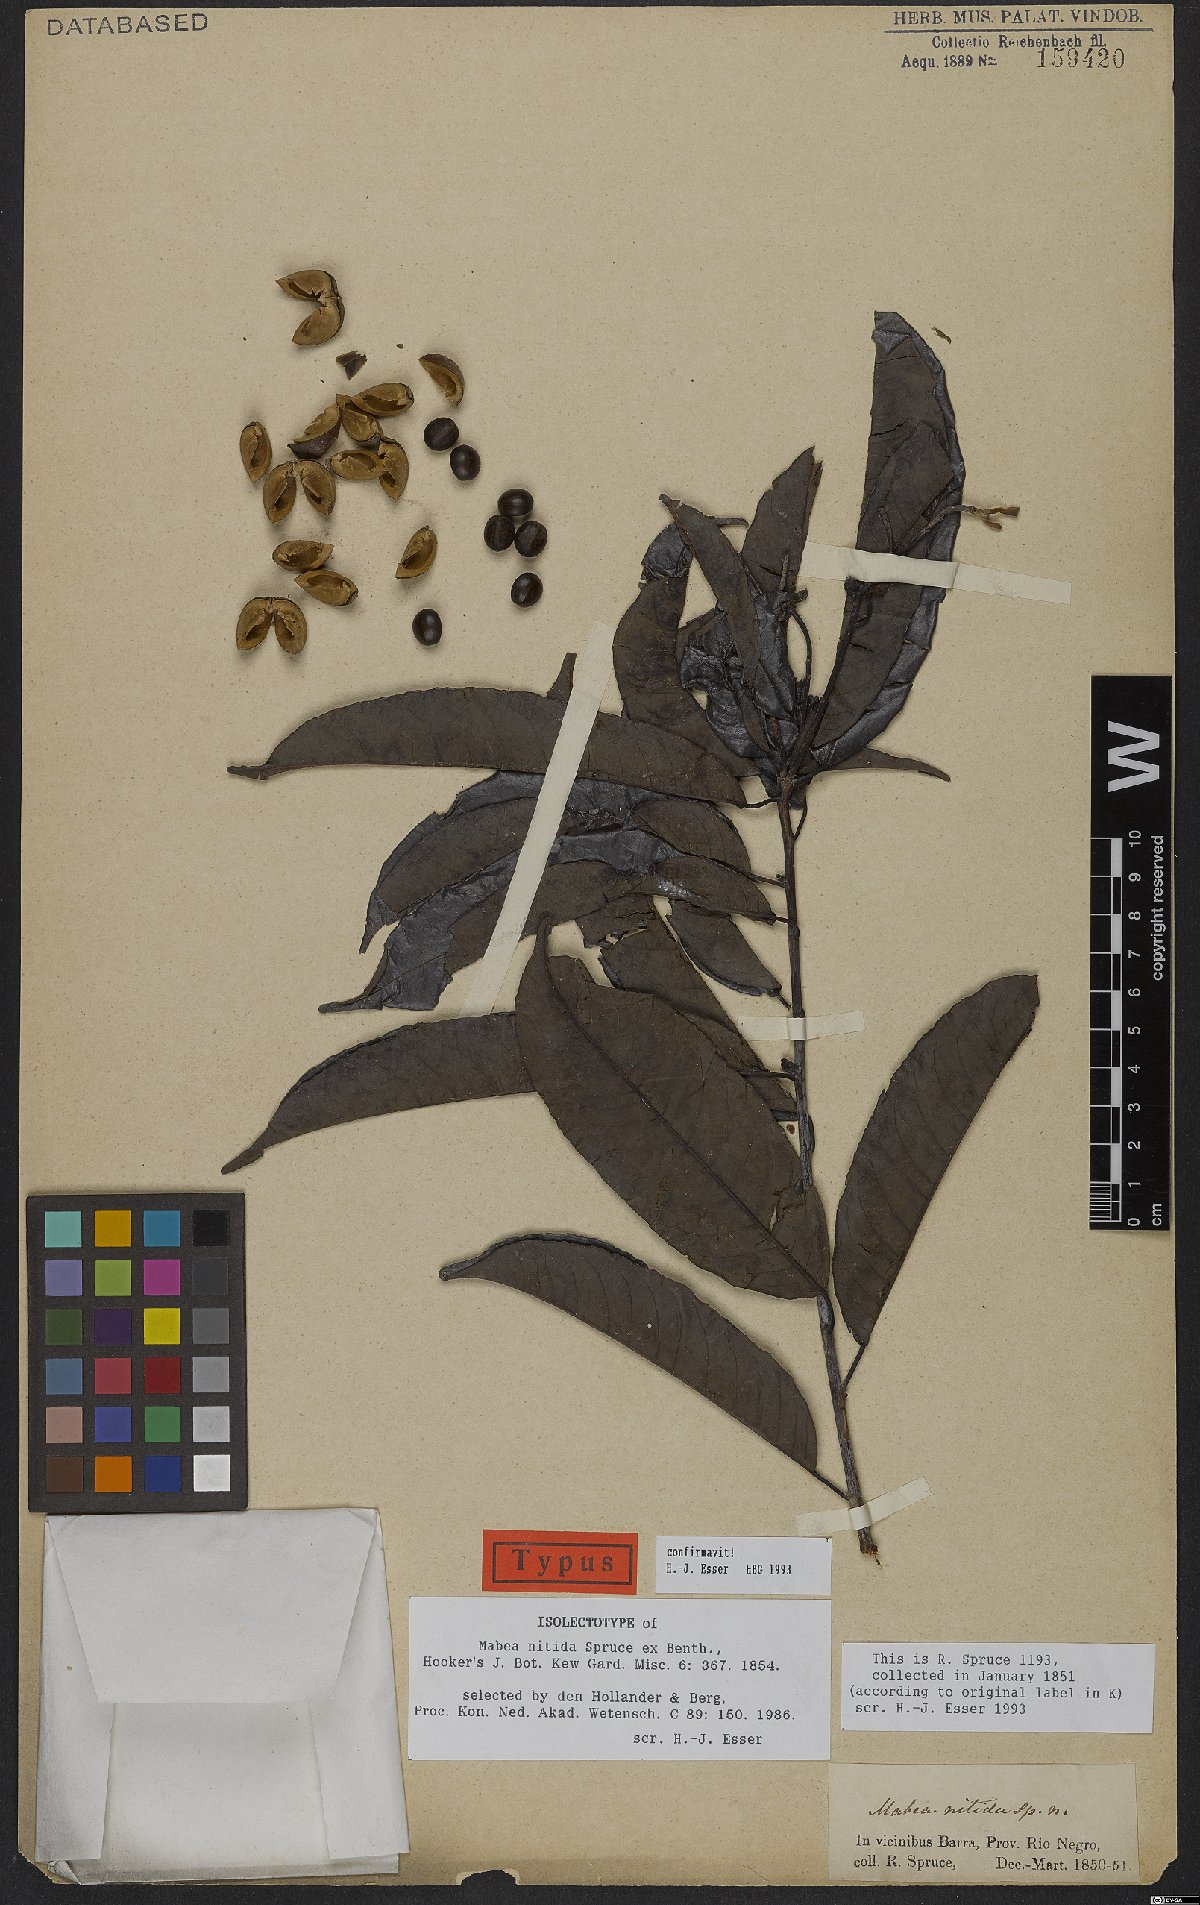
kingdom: Plantae
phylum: Tracheophyta
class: Magnoliopsida
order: Malpighiales
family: Euphorbiaceae
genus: Mabea
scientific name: Mabea nitida
